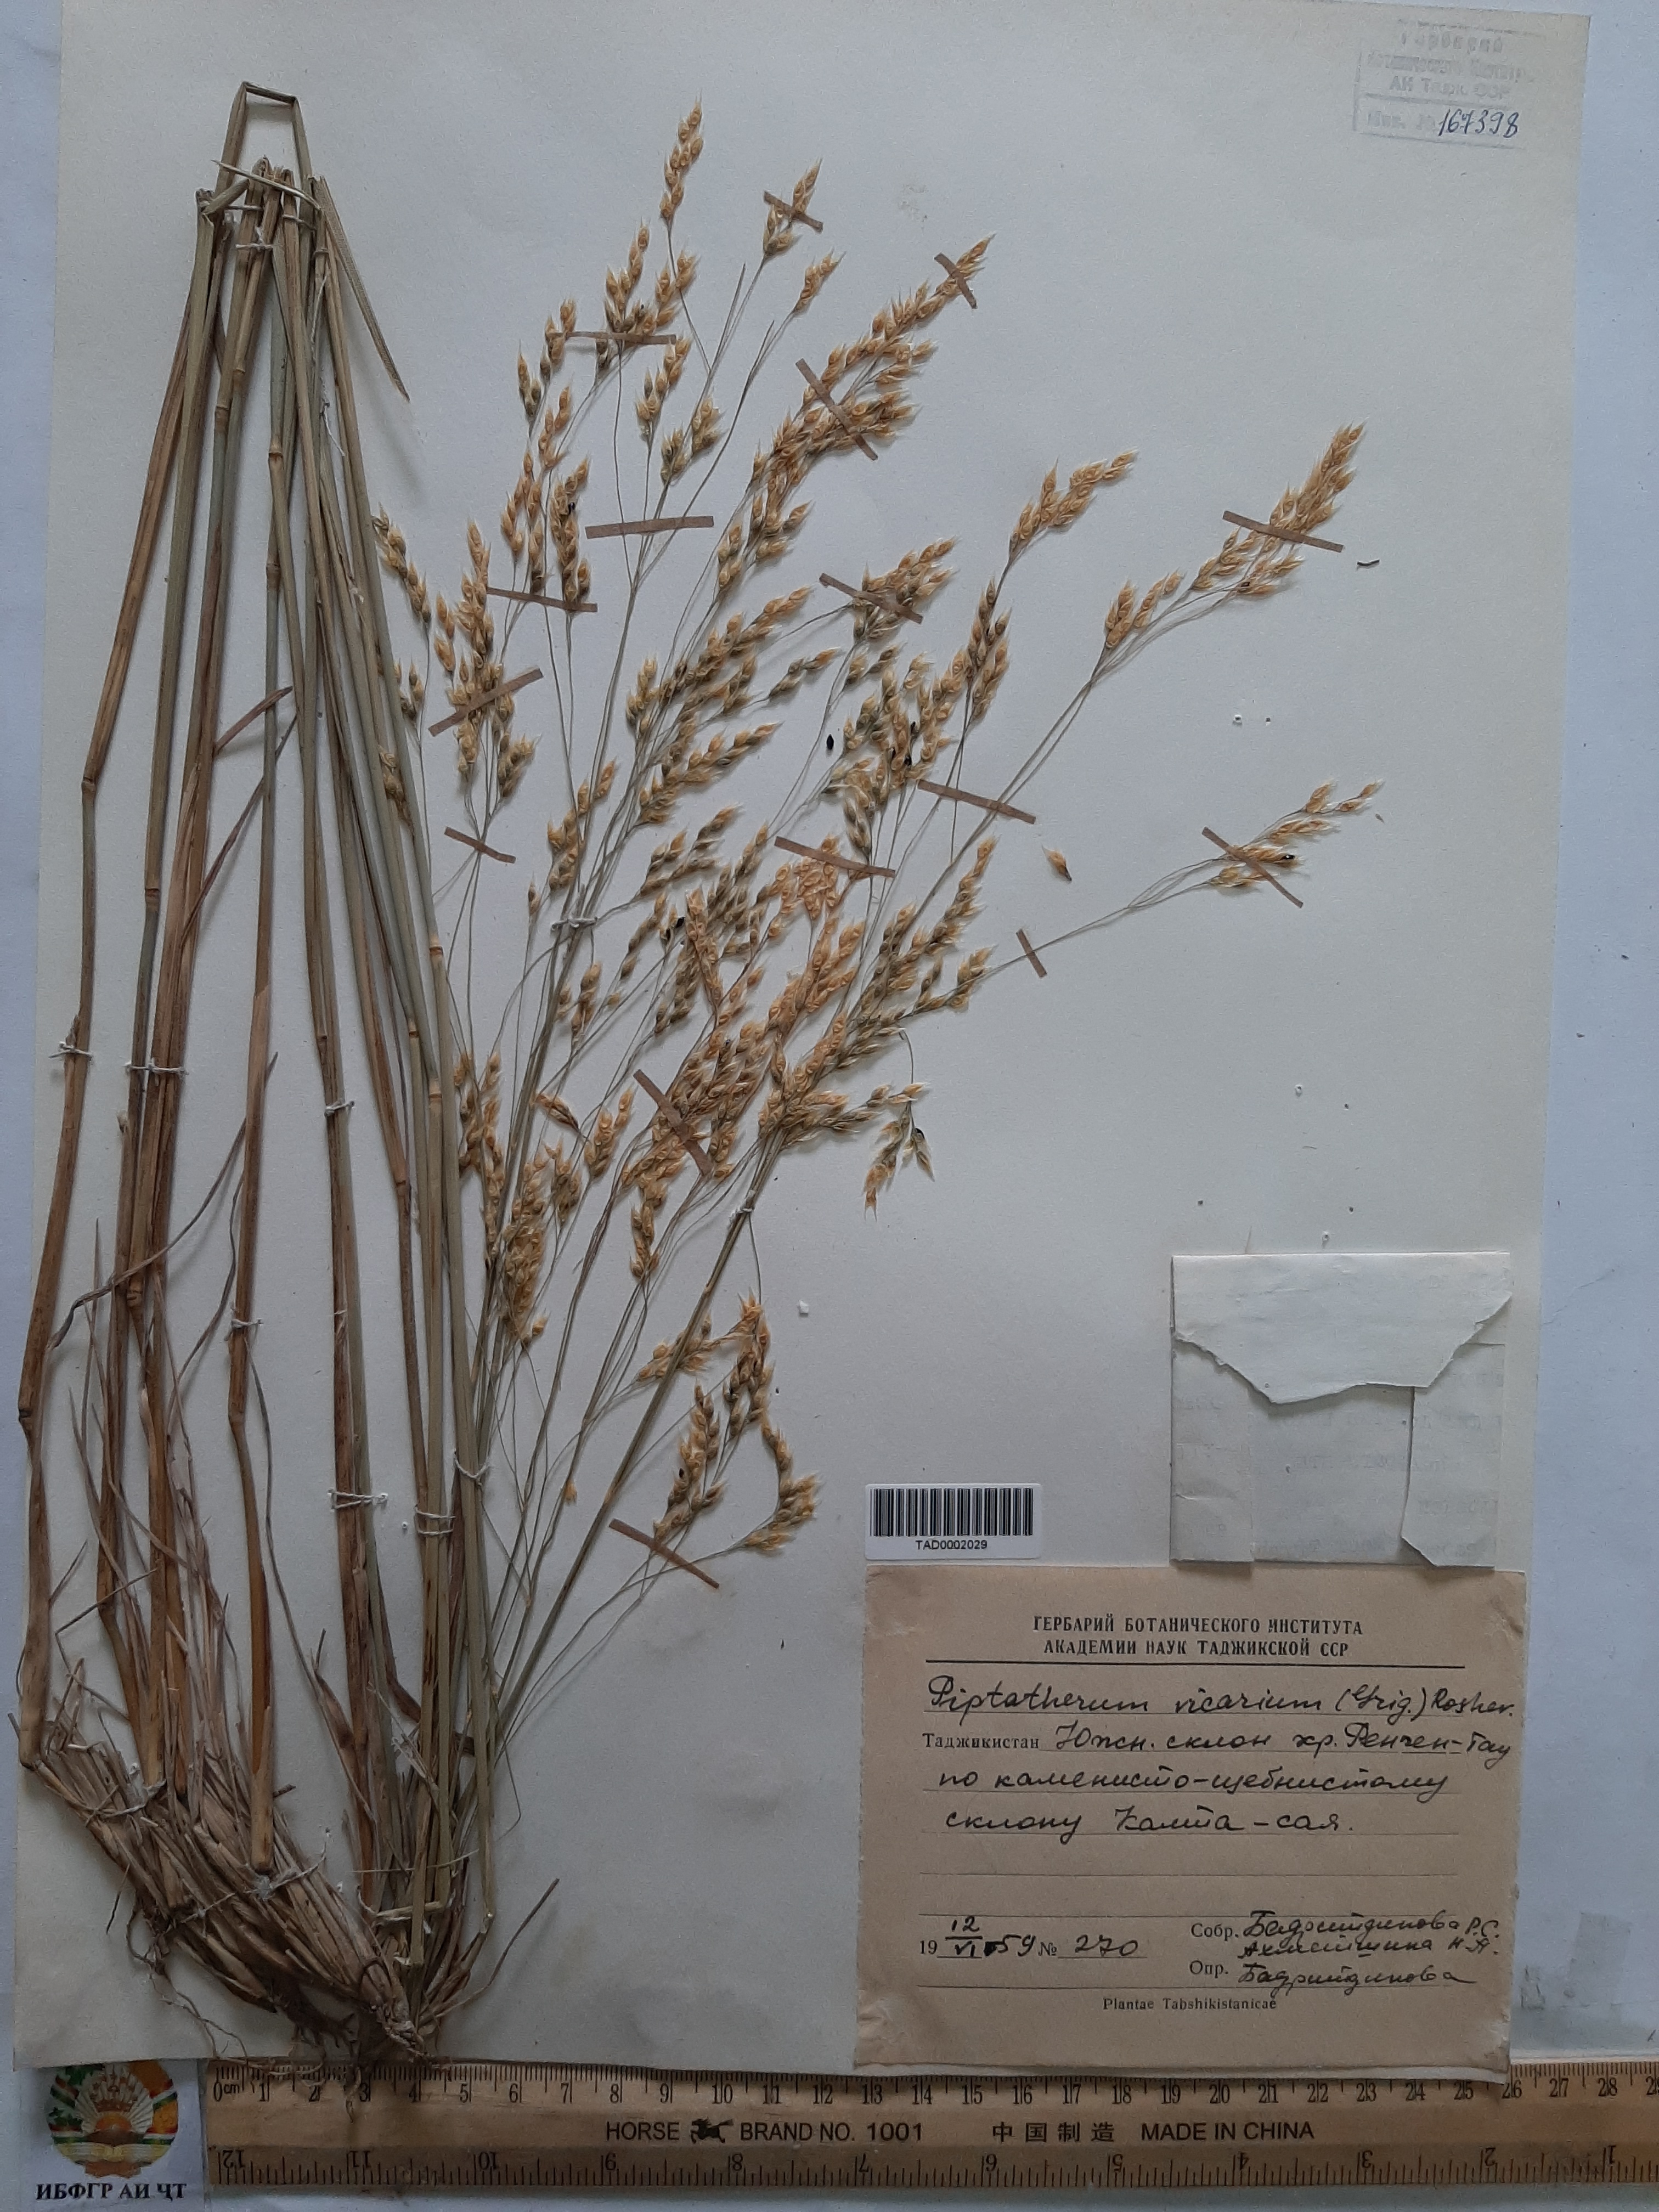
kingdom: Plantae
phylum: Tracheophyta
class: Liliopsida
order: Poales
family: Poaceae
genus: Piptatherum
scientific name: Piptatherum microcarpum
